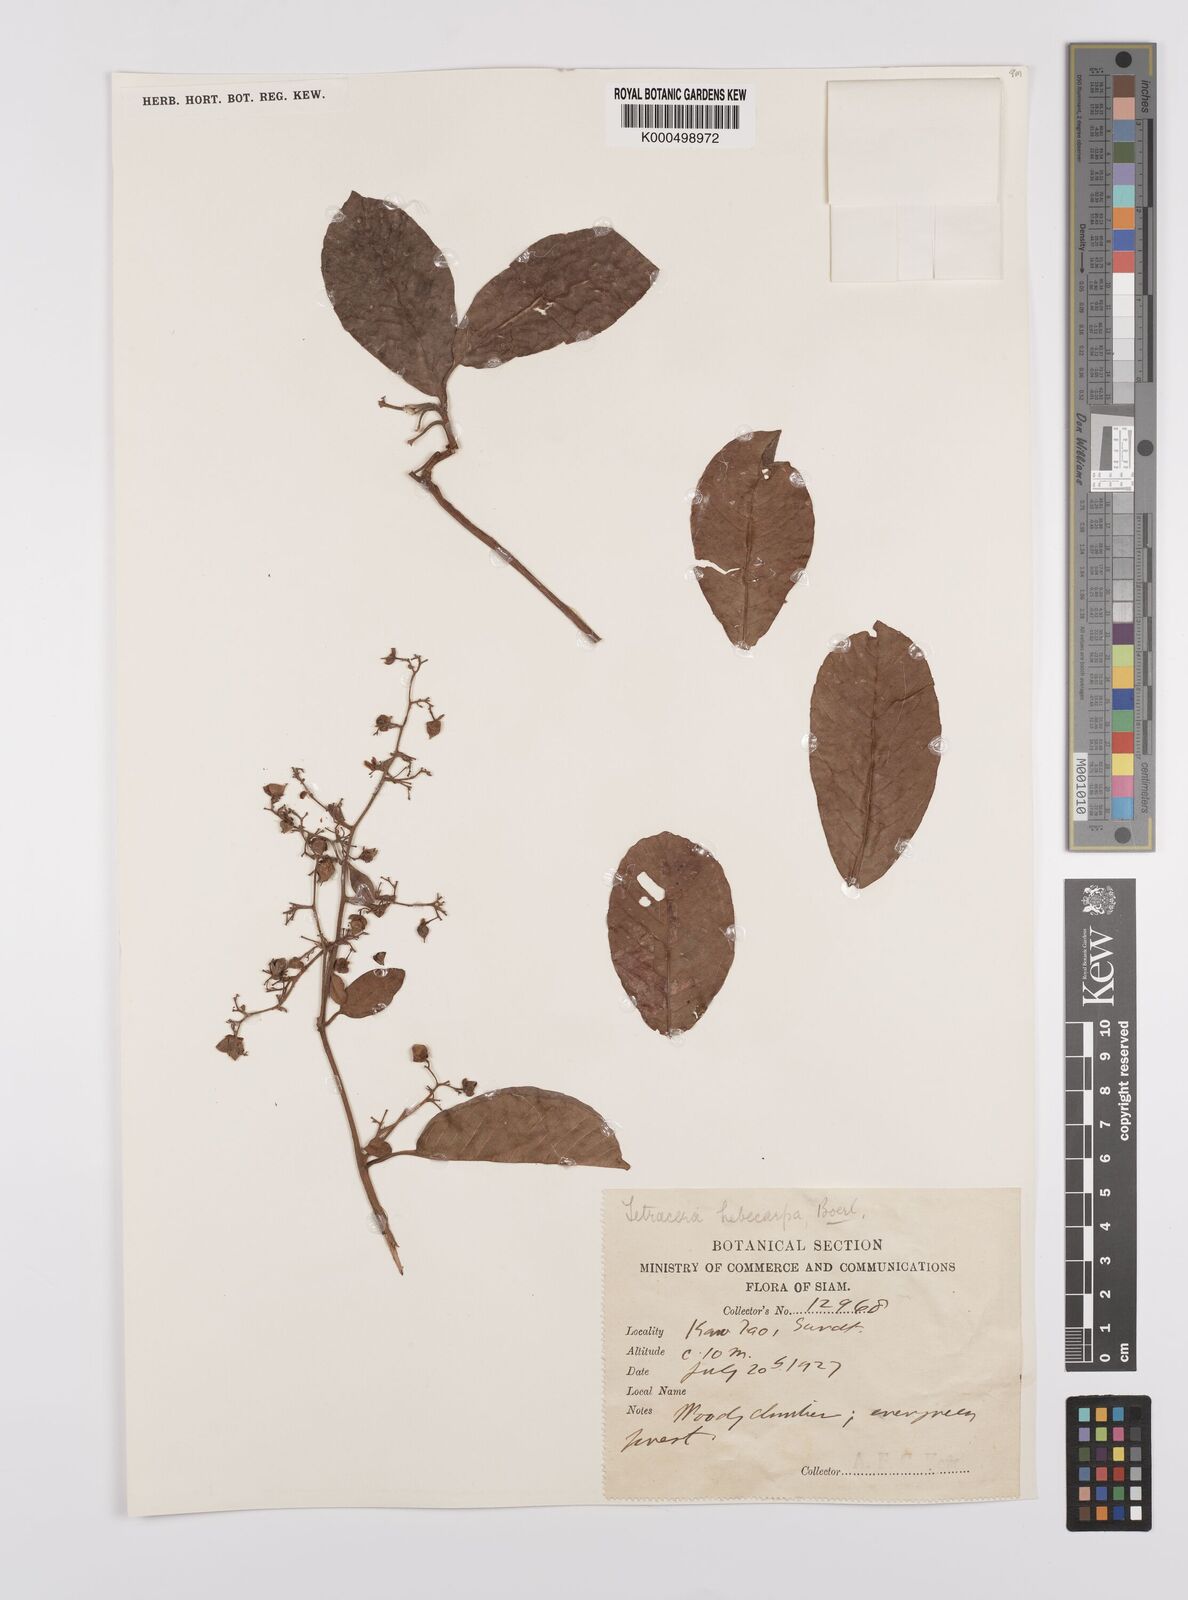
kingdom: Plantae
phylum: Tracheophyta
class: Magnoliopsida
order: Dilleniales
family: Dilleniaceae
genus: Tetracera
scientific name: Tetracera scandens
